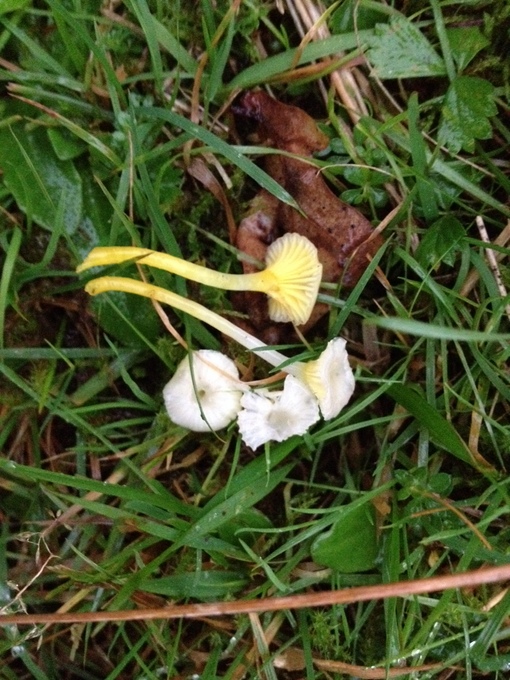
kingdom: Fungi
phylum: Basidiomycota
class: Agaricomycetes
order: Agaricales
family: Hygrophoraceae
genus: Gloioxanthomyces
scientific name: Gloioxanthomyces vitellinus
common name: kromgul vokshat
